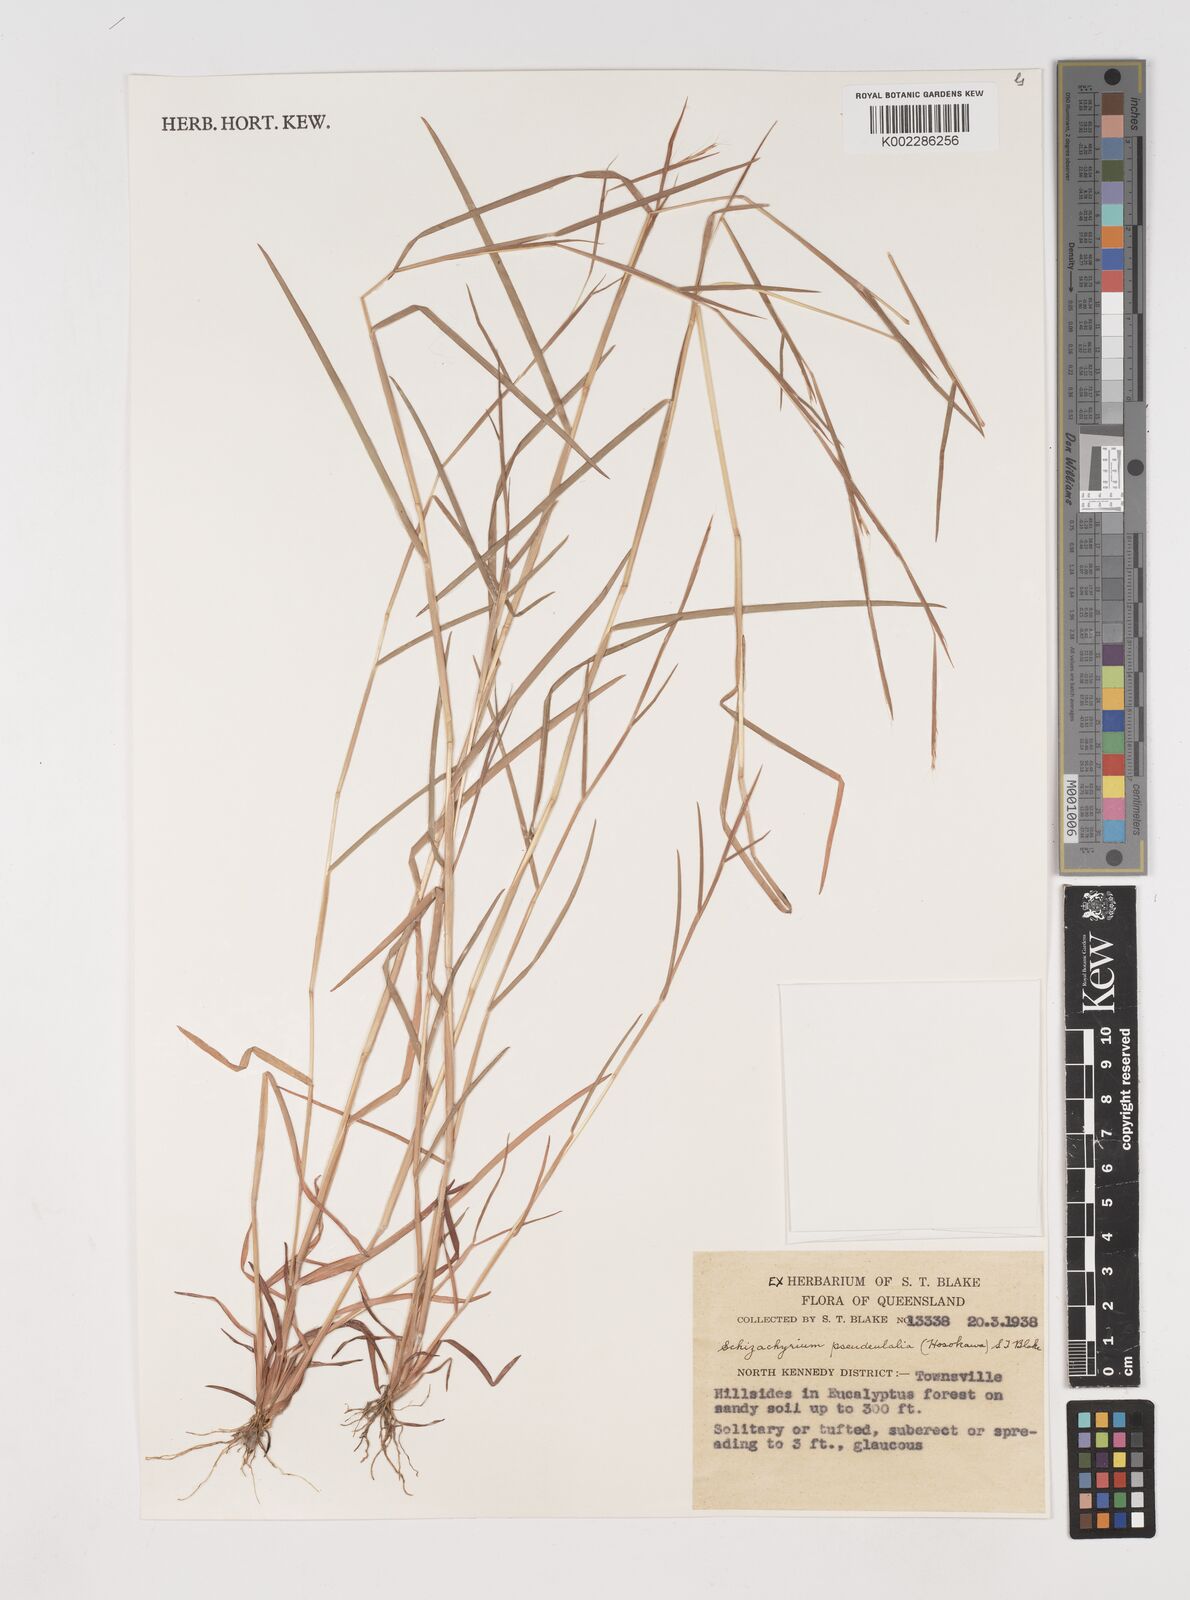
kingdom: Plantae
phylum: Tracheophyta
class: Liliopsida
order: Poales
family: Poaceae
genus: Schizachyrium
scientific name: Schizachyrium pseudeulalia
